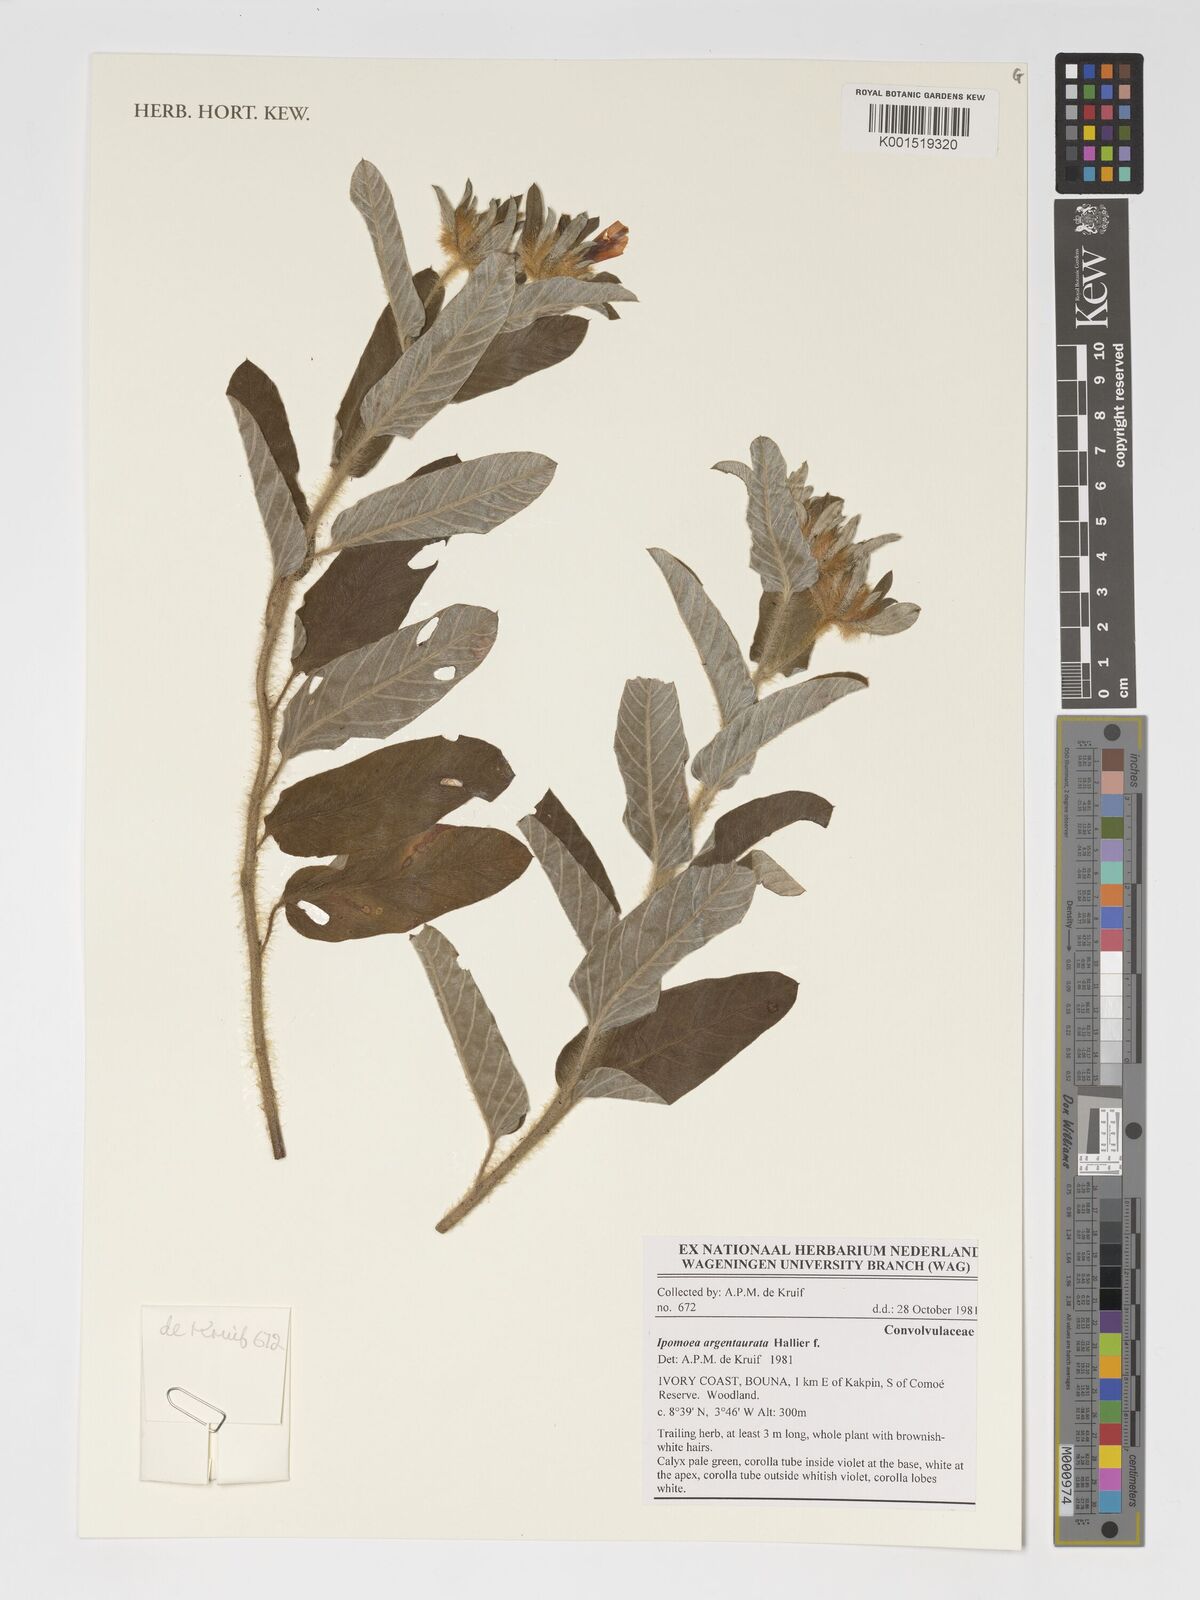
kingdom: Plantae
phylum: Tracheophyta
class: Magnoliopsida
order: Solanales
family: Convolvulaceae
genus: Ipomoea
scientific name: Ipomoea argentaurata
